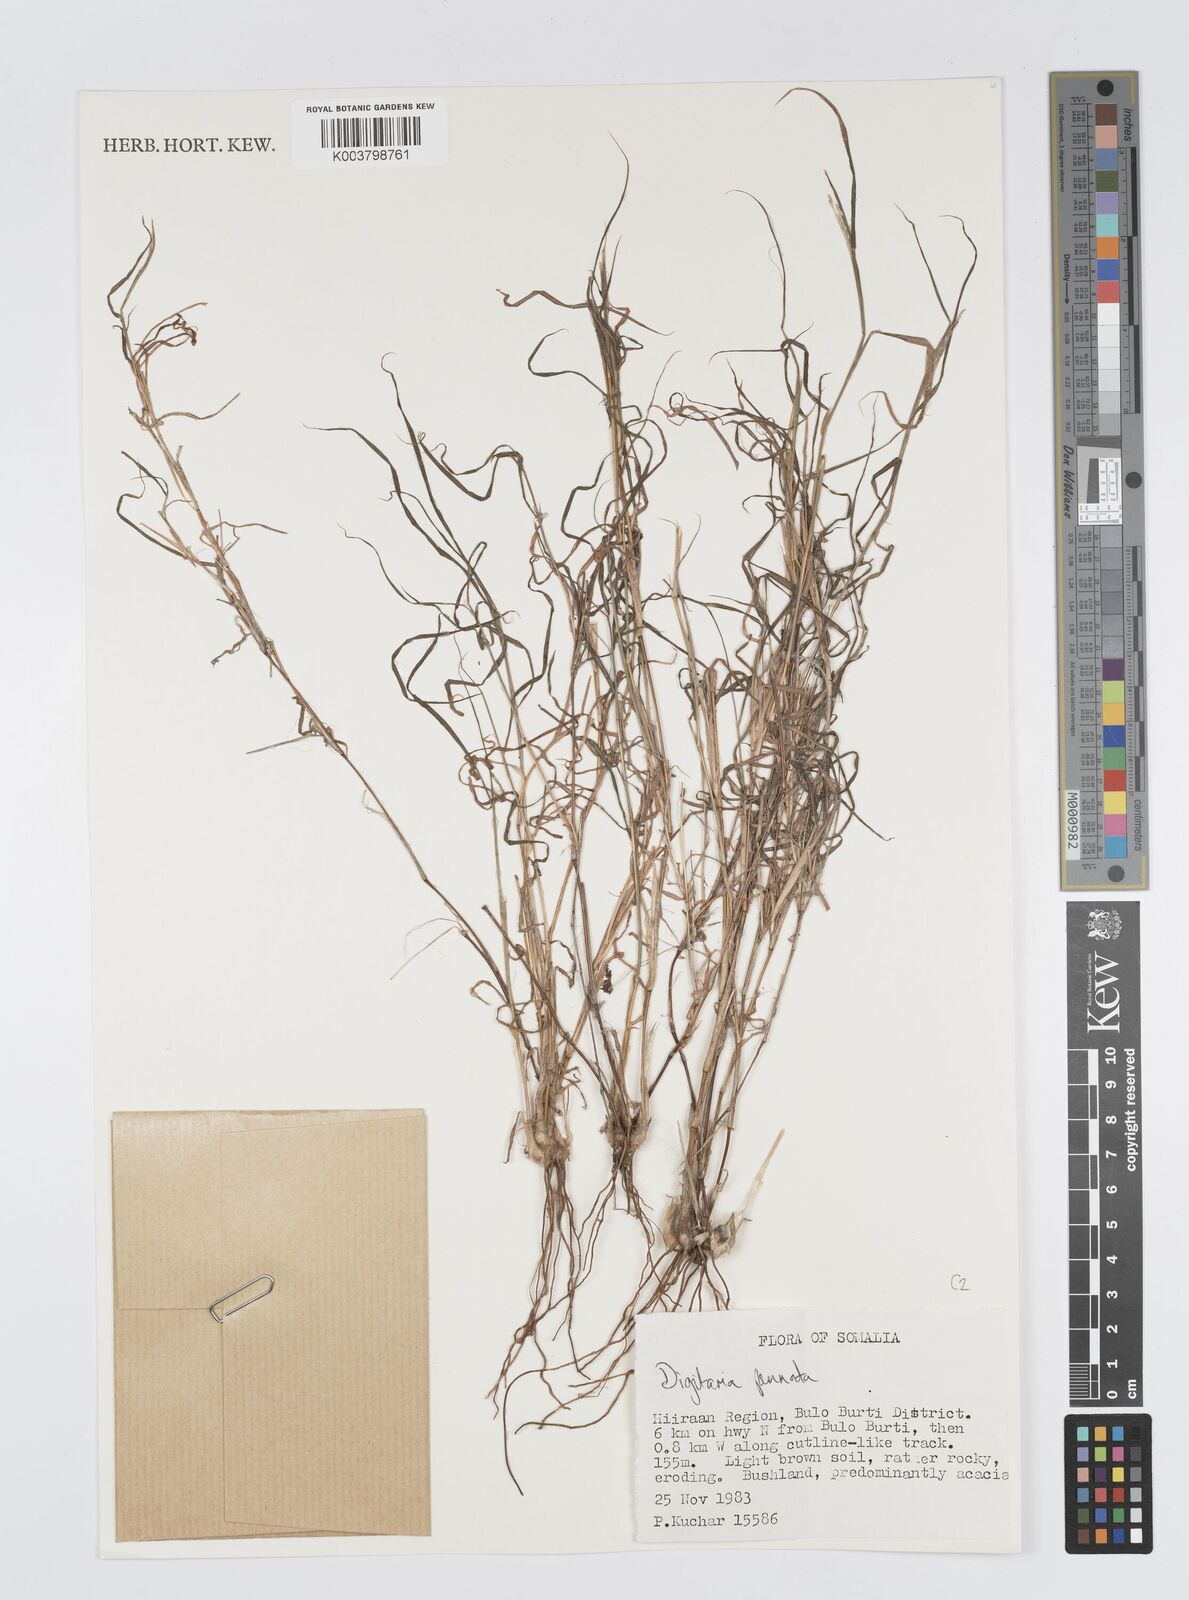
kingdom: Plantae
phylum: Tracheophyta
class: Liliopsida
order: Poales
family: Poaceae
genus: Digitaria
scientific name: Digitaria pennata
